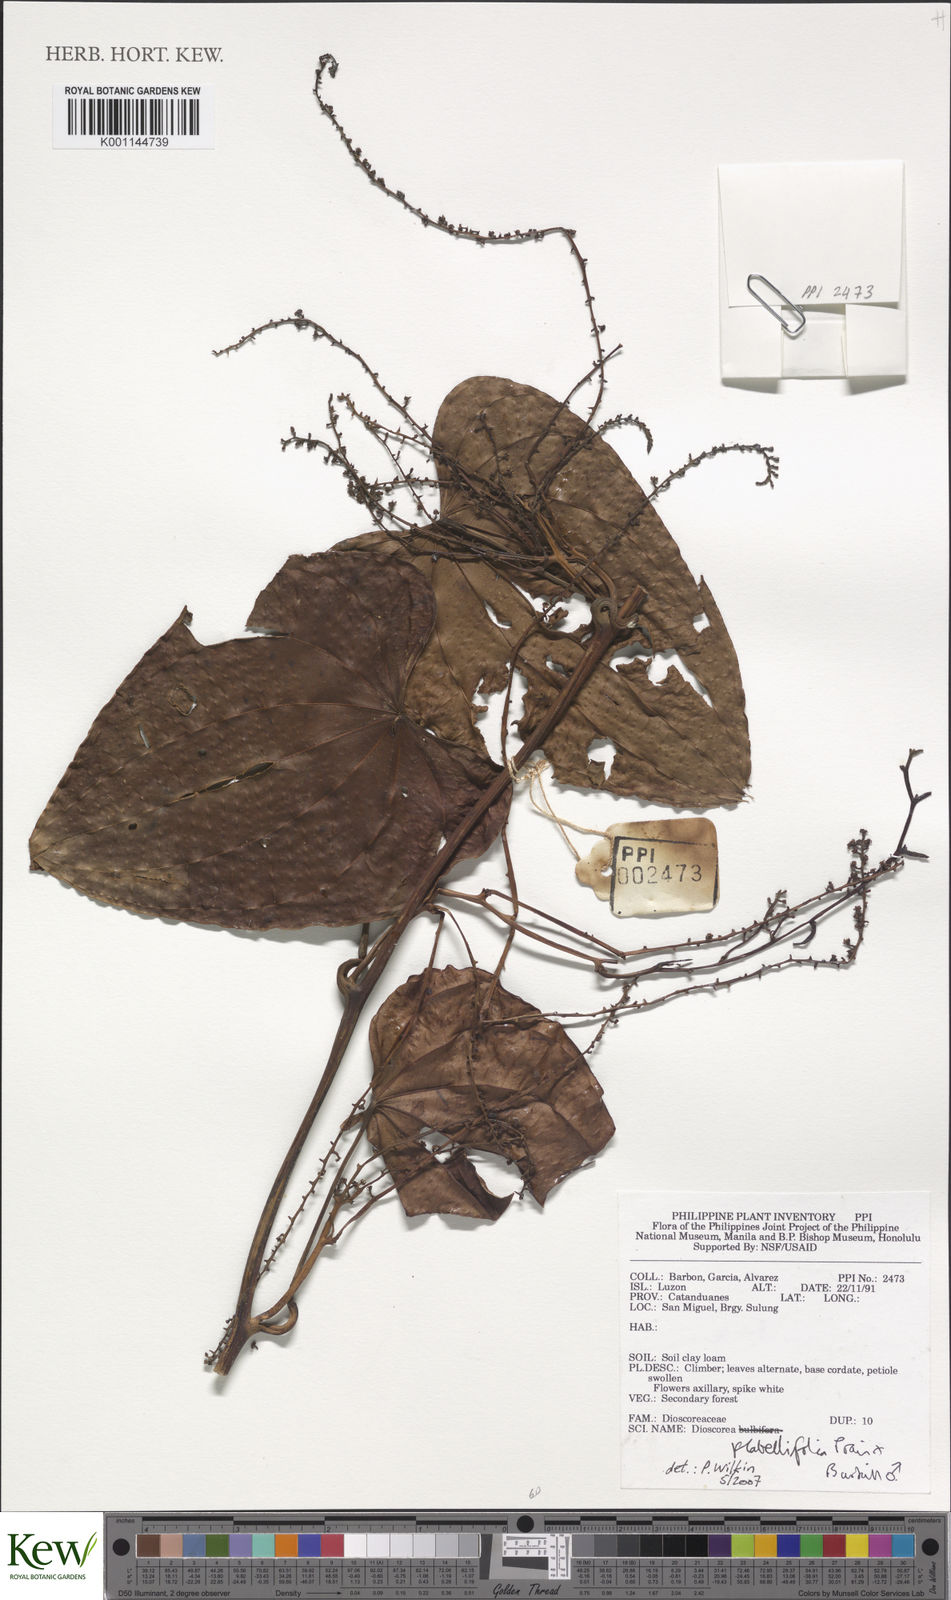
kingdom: Plantae
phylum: Tracheophyta
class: Liliopsida
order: Dioscoreales
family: Dioscoreaceae
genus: Dioscorea
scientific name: Dioscorea flabellifolia
